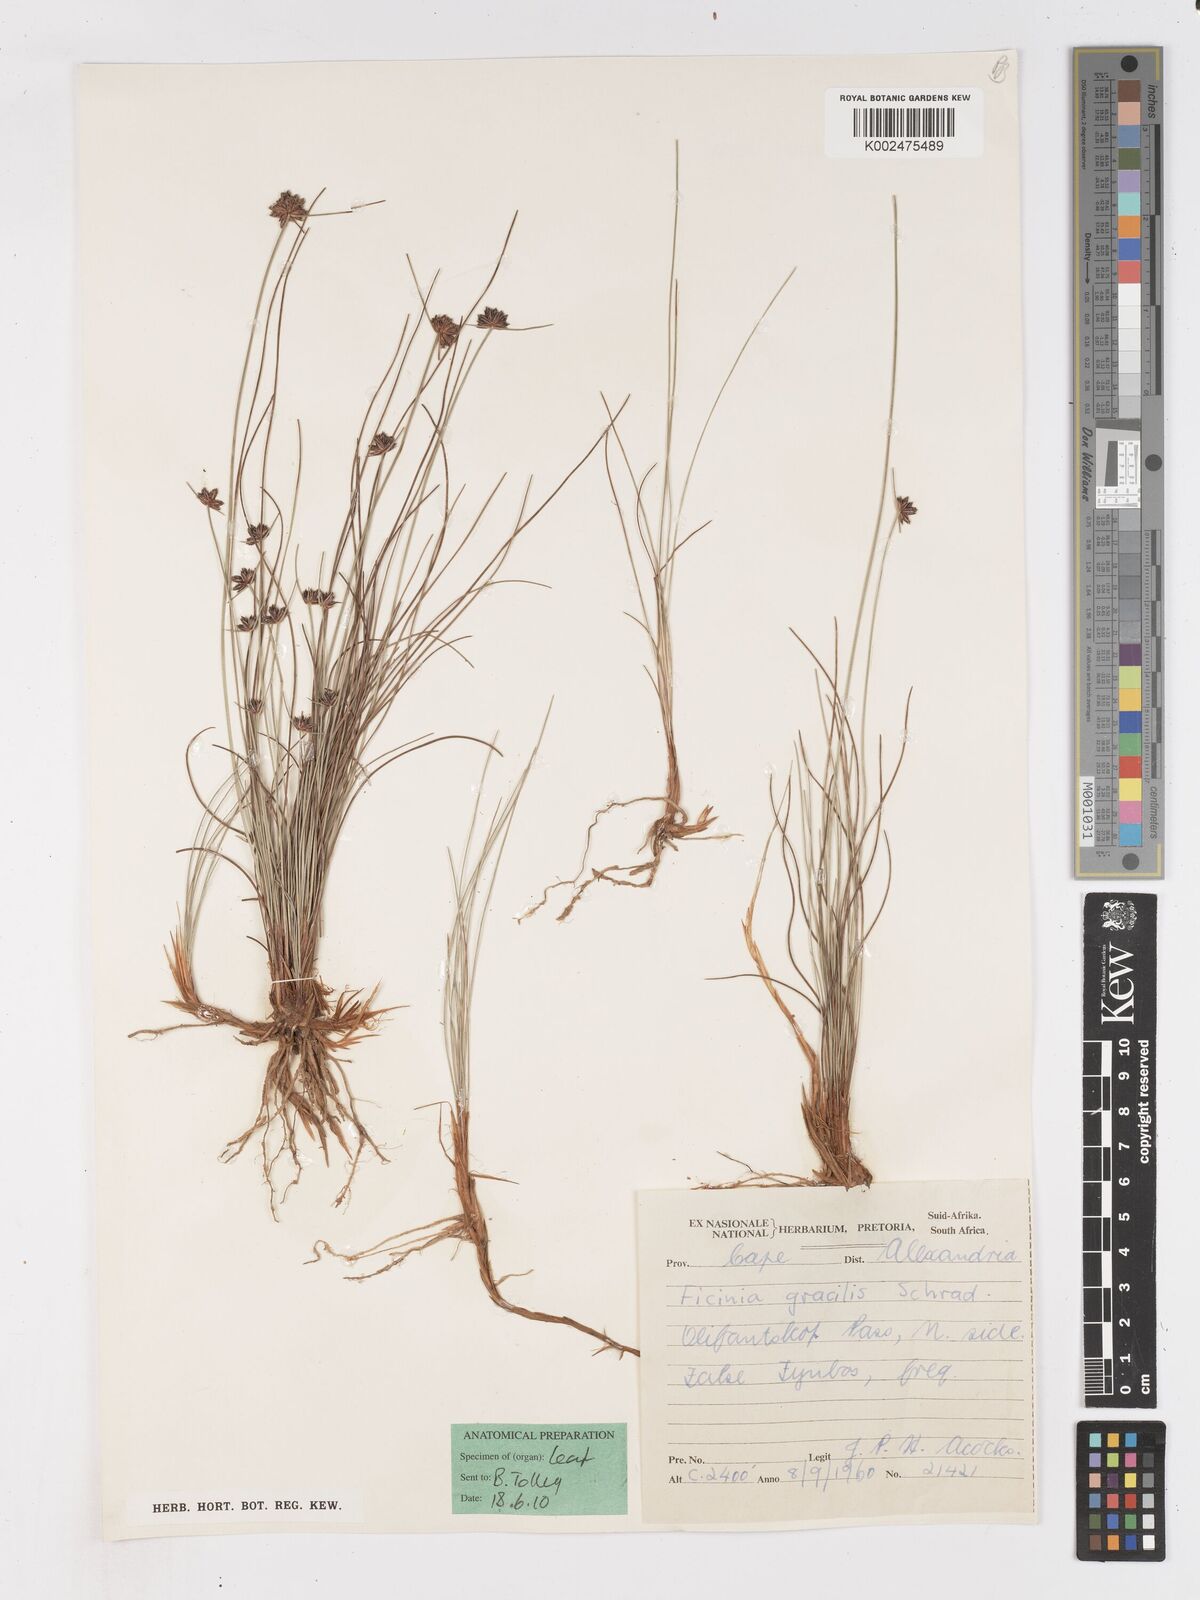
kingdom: Plantae
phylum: Tracheophyta
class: Liliopsida
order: Poales
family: Cyperaceae
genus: Ficinia
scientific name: Ficinia gracilis
